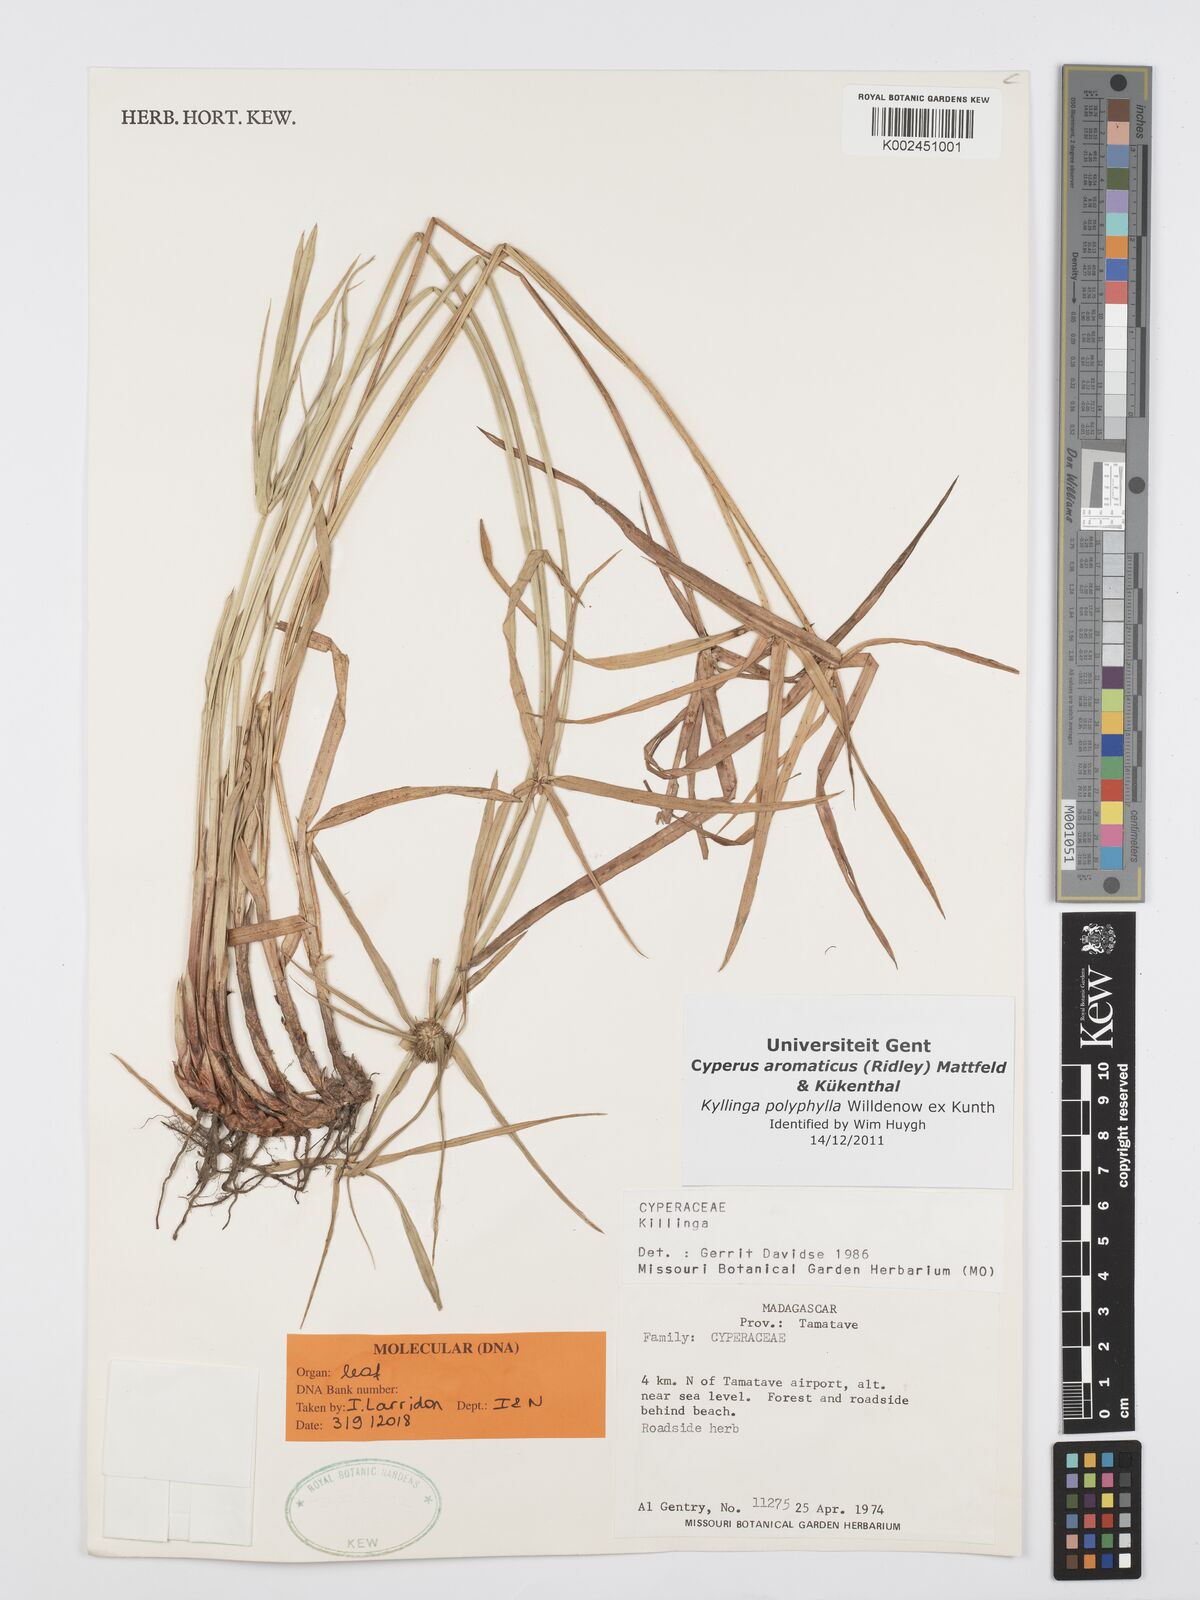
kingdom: Plantae
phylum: Tracheophyta
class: Liliopsida
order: Poales
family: Cyperaceae
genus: Cyperus
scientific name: Cyperus
